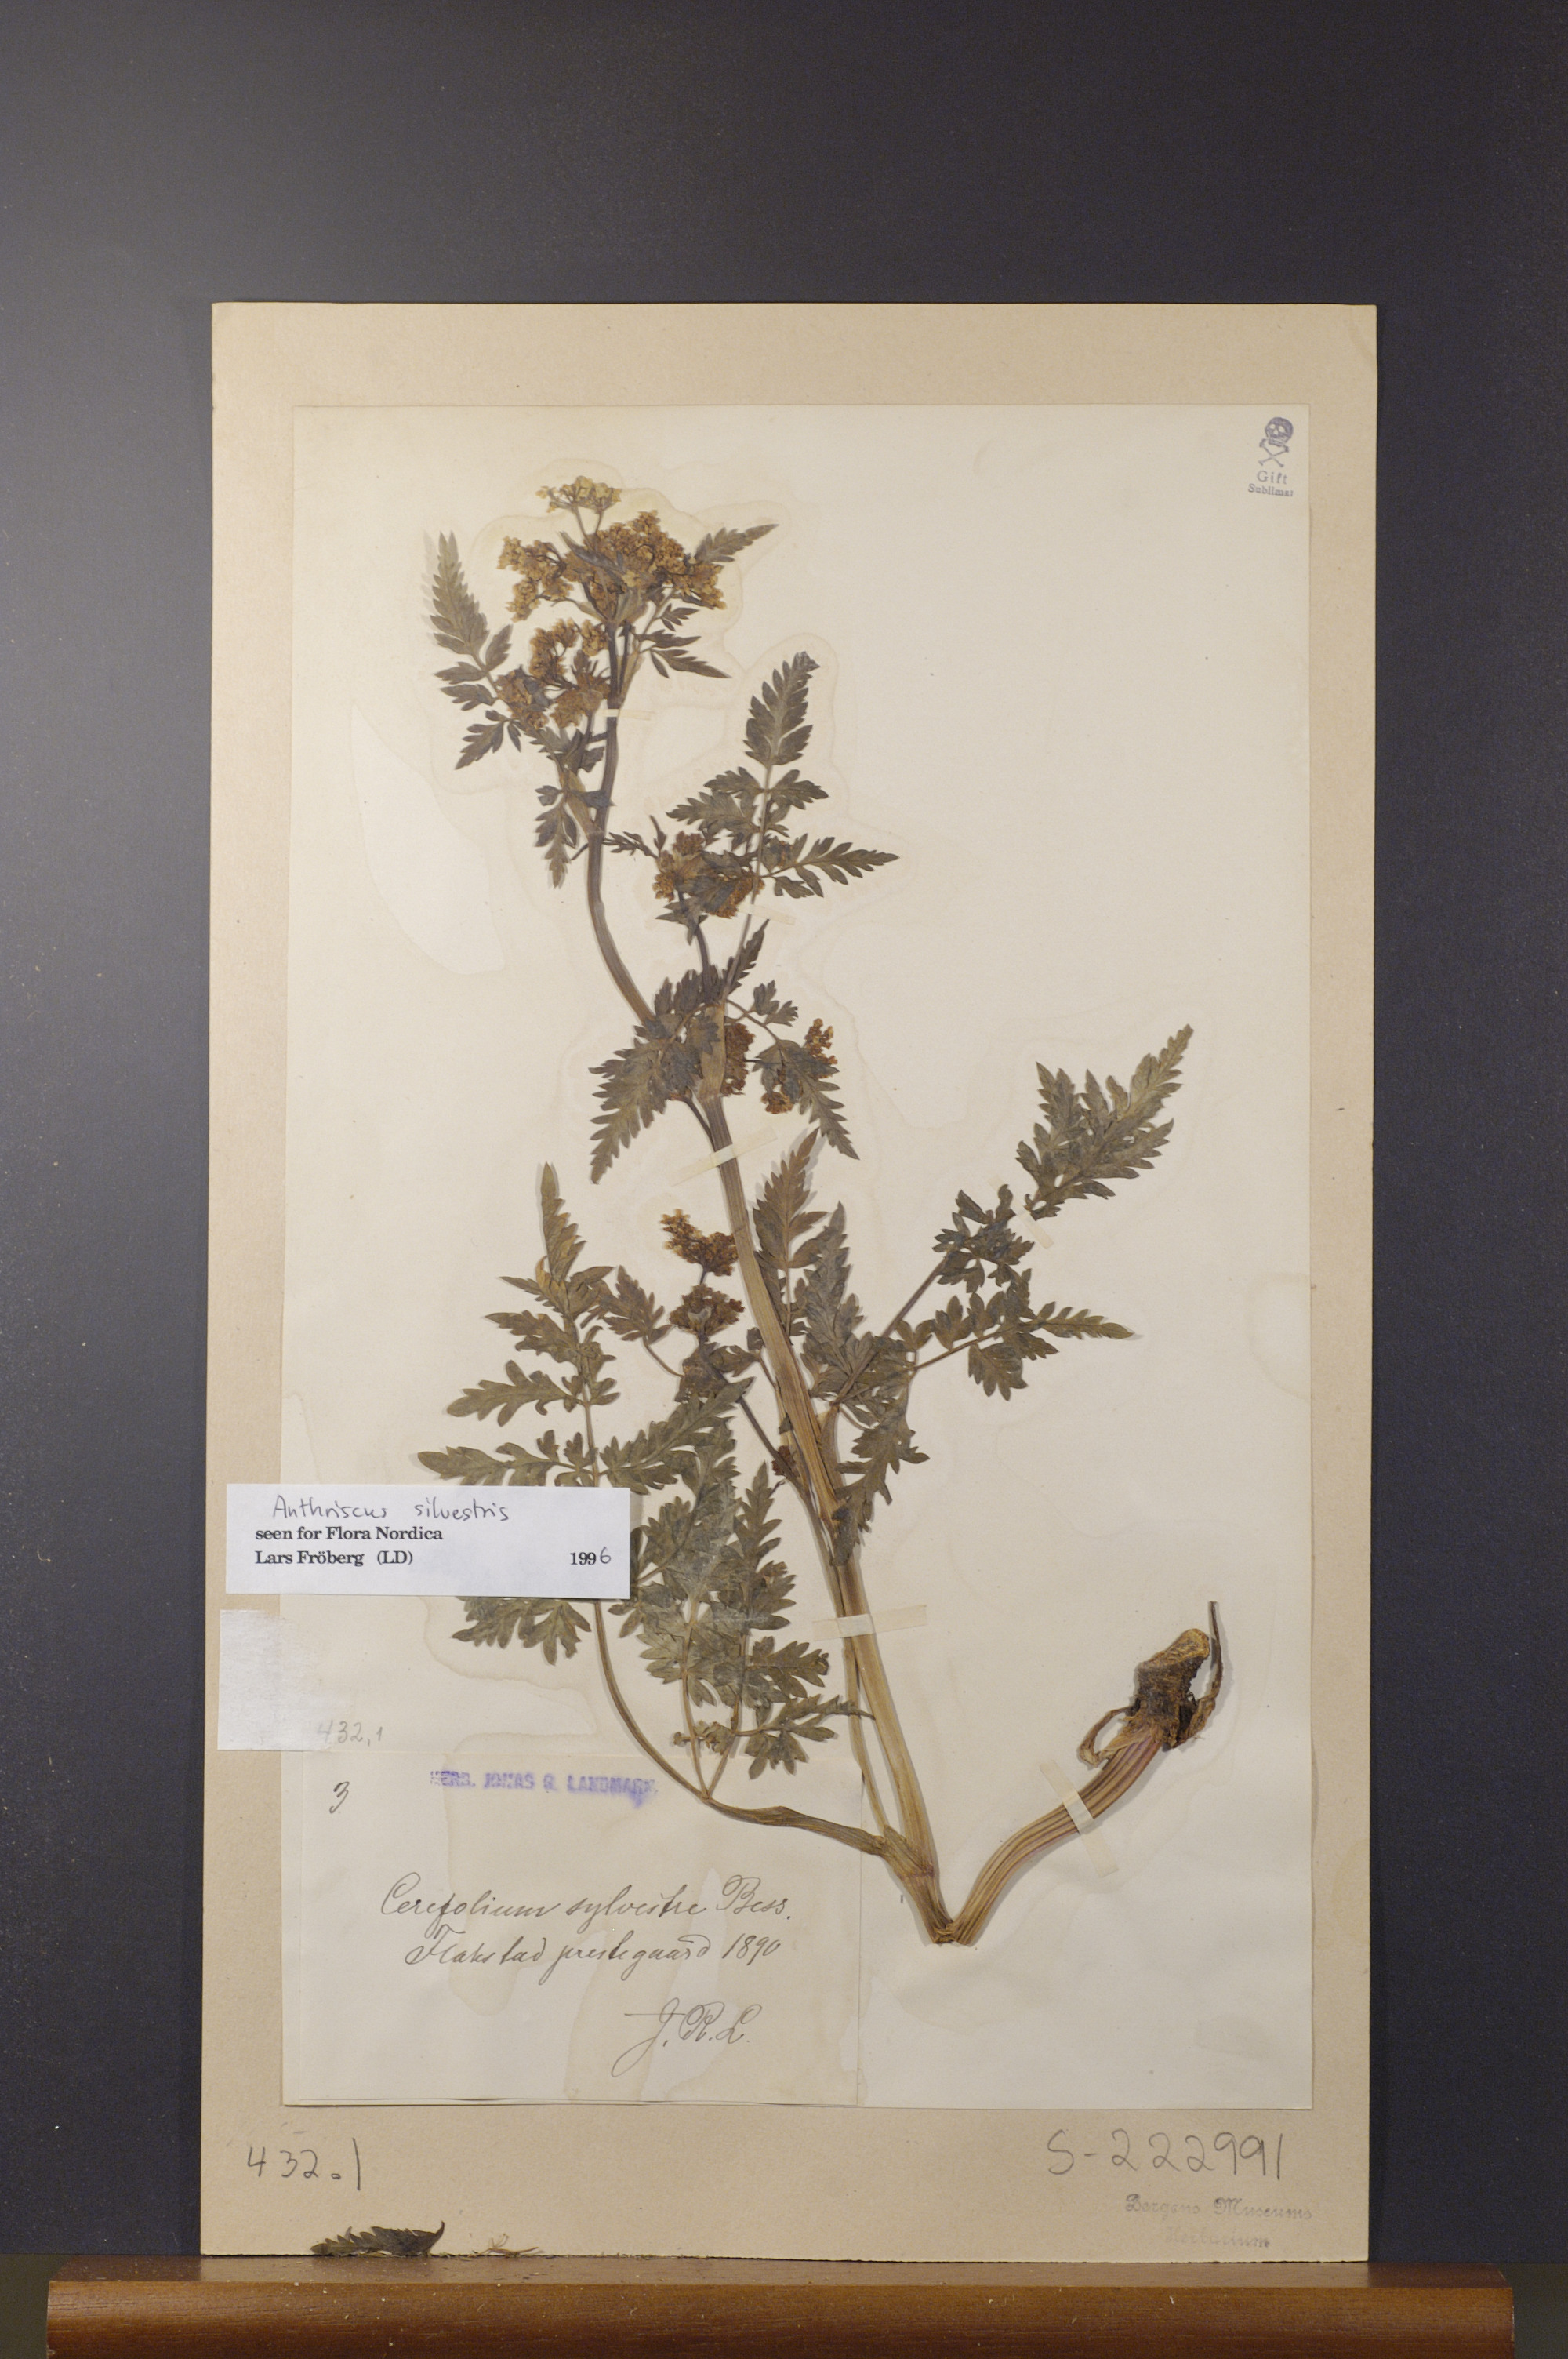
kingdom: Plantae
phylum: Tracheophyta
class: Magnoliopsida
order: Apiales
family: Apiaceae
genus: Anthriscus
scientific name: Anthriscus sylvestris
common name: Cow parsley
